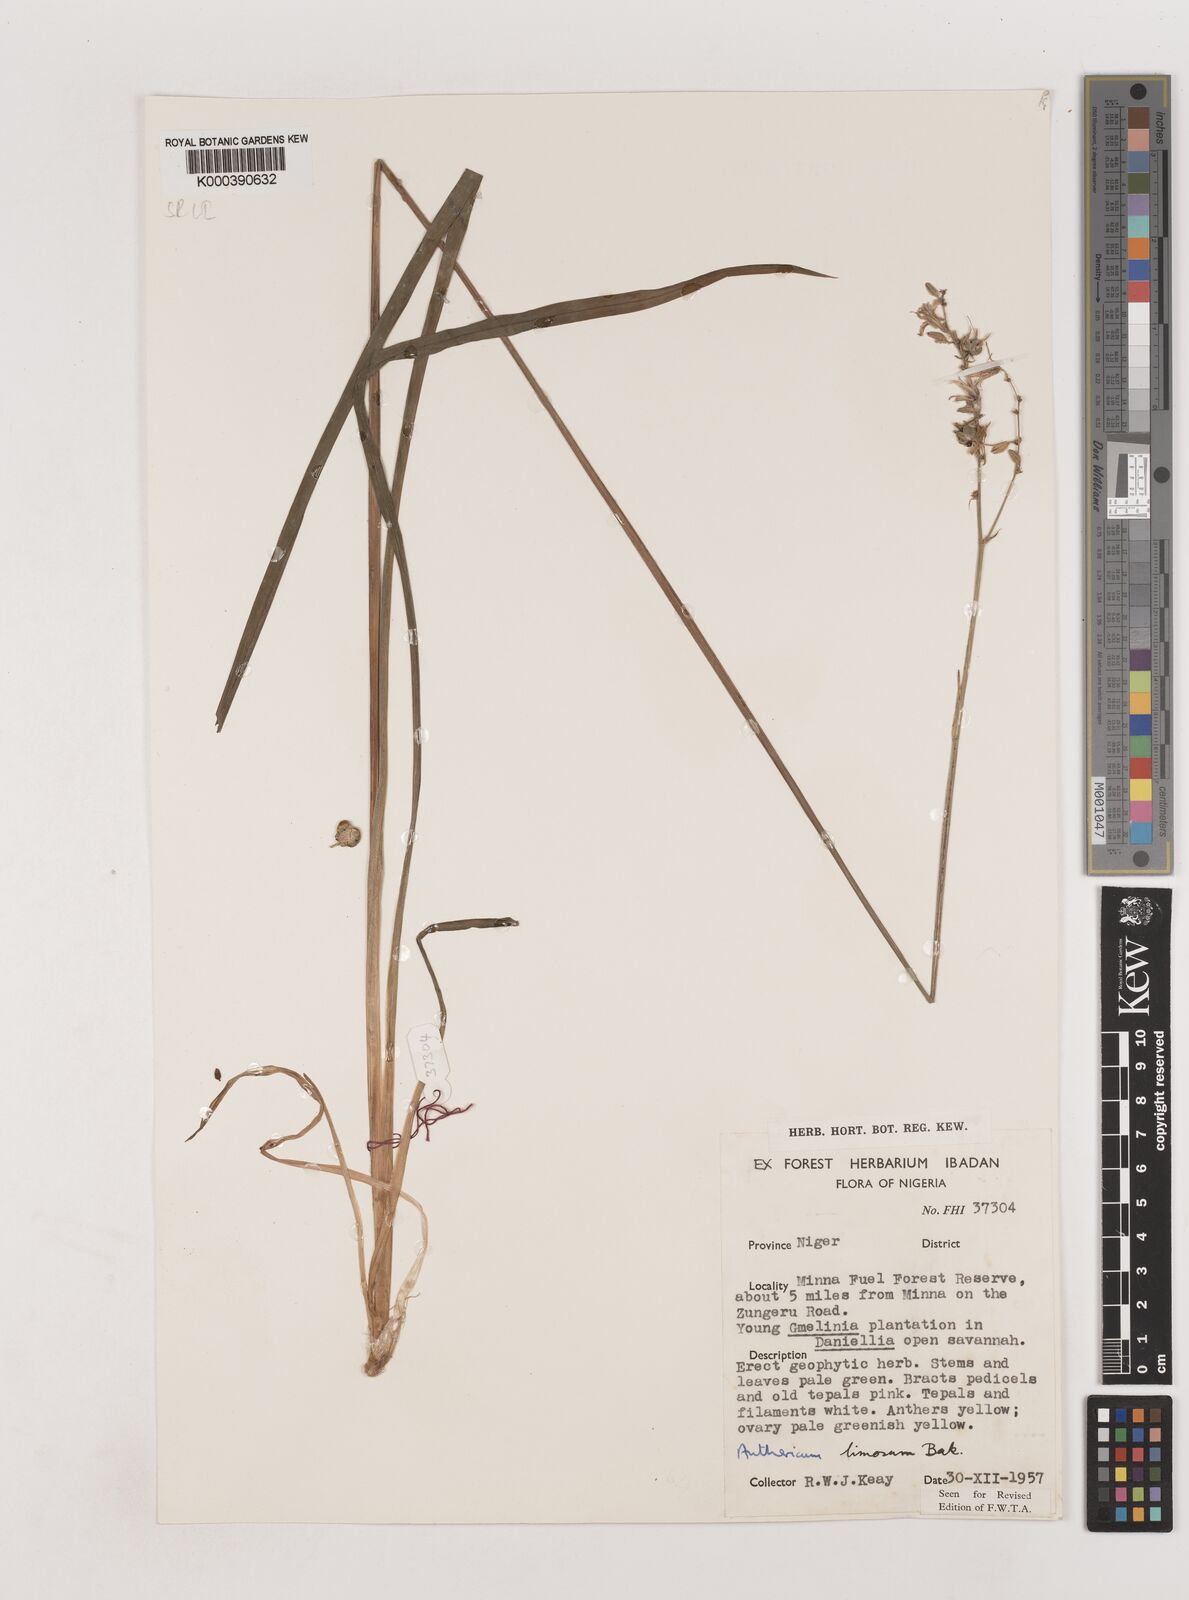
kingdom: Plantae
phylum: Tracheophyta
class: Liliopsida
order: Asparagales
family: Asparagaceae
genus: Chlorophytum
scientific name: Chlorophytum limosum
